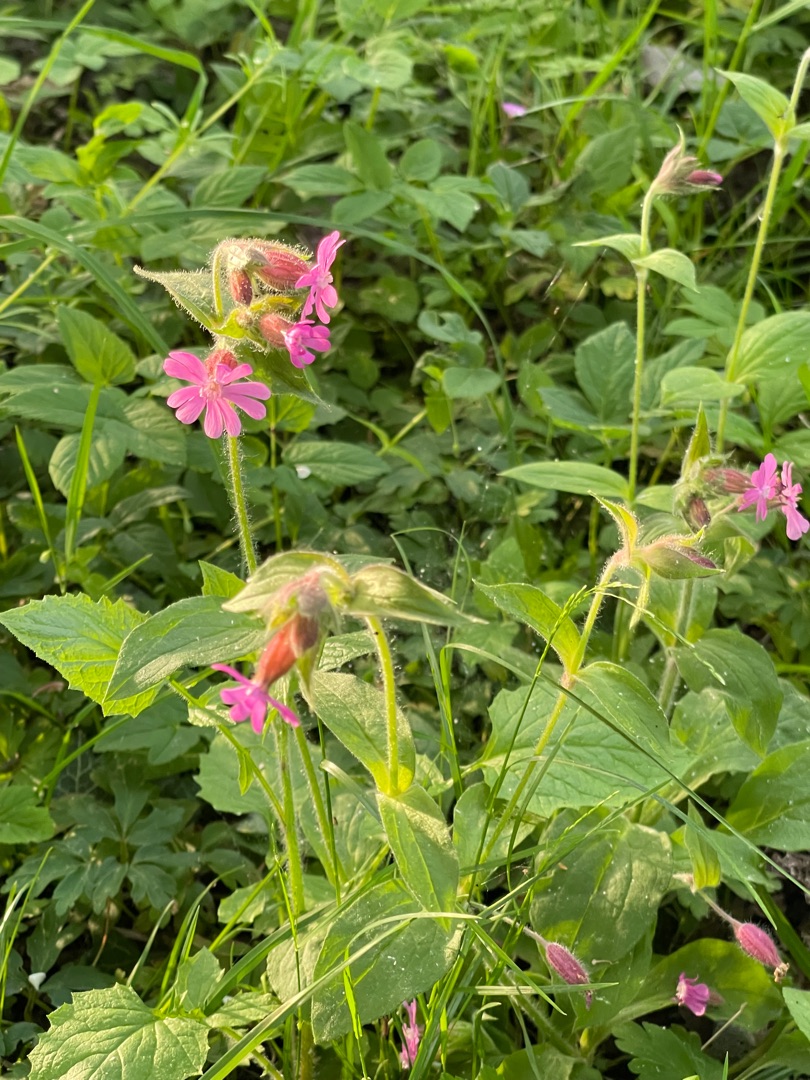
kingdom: Plantae
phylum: Tracheophyta
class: Magnoliopsida
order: Caryophyllales
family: Caryophyllaceae
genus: Silene
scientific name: Silene dioica
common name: Dagpragtstjerne
